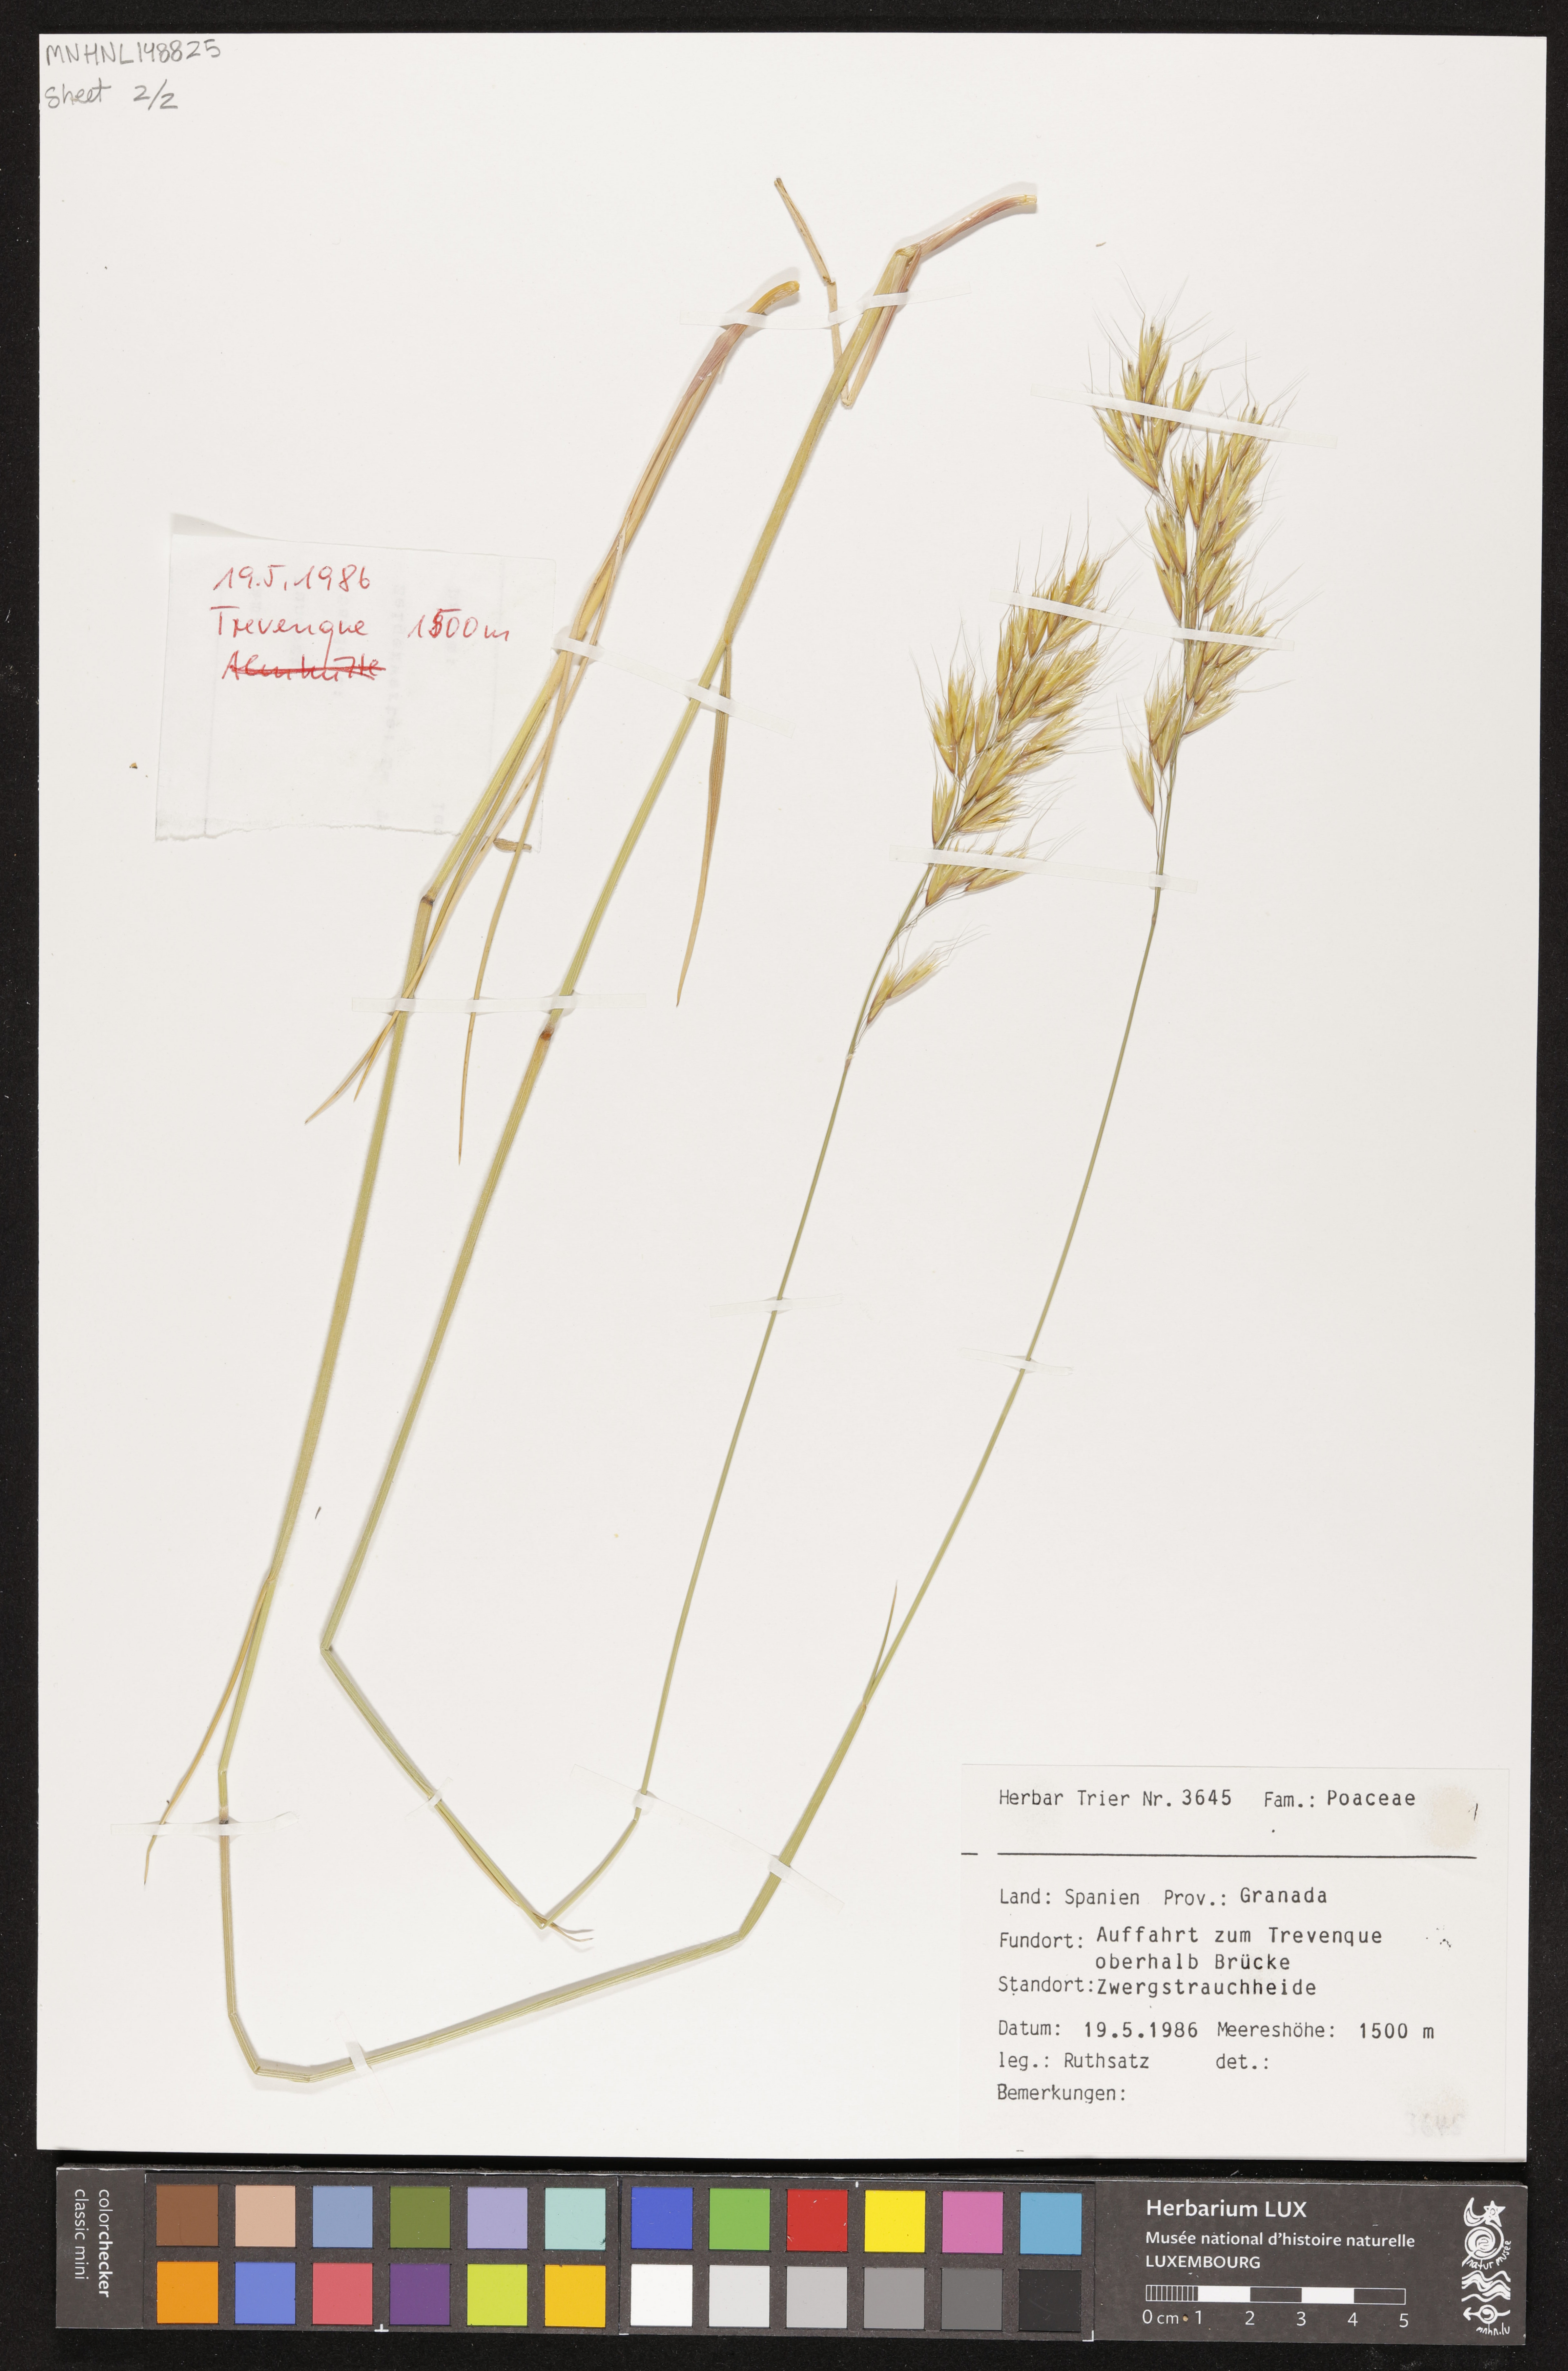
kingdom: Plantae
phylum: Tracheophyta
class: Liliopsida
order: Poales
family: Poaceae
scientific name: Poaceae
